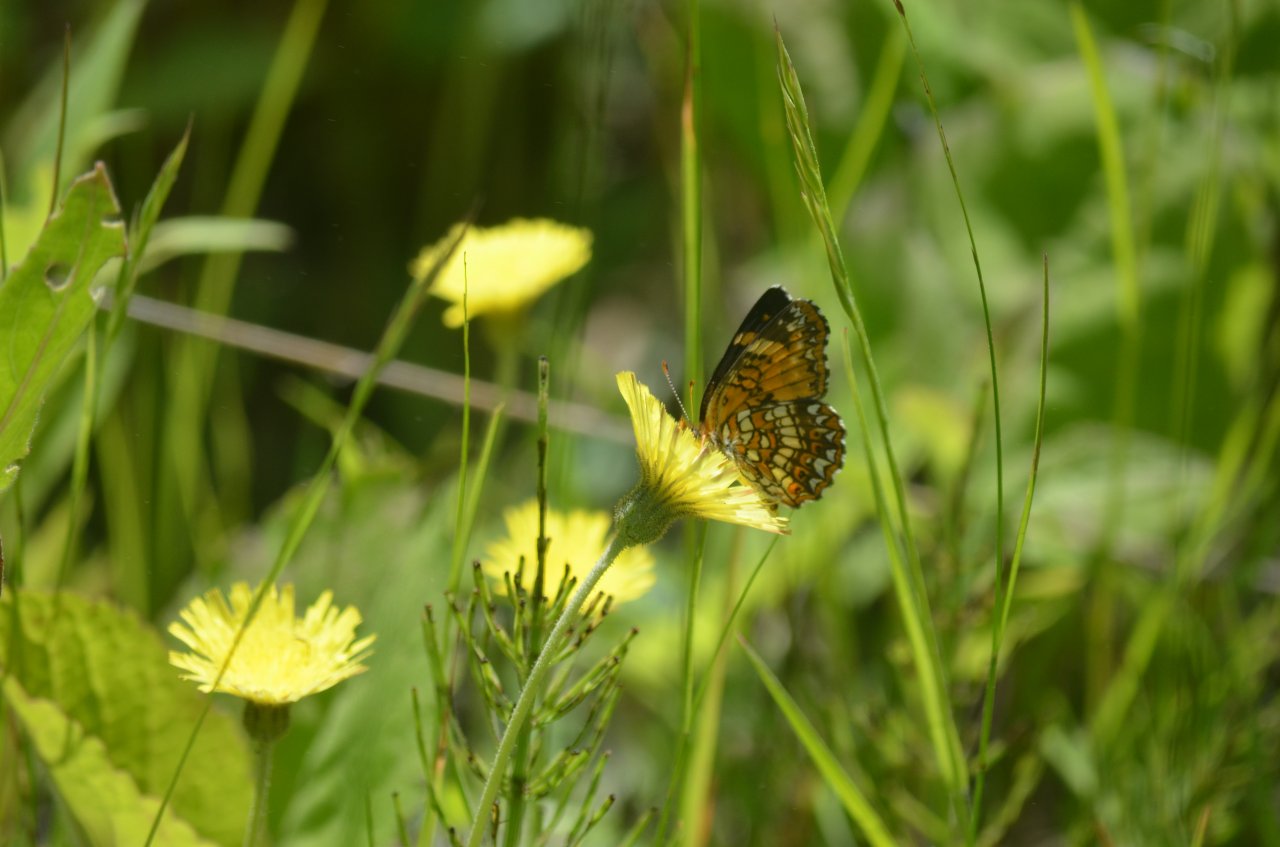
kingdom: Animalia
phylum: Arthropoda
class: Insecta
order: Lepidoptera
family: Nymphalidae
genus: Chlosyne
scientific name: Chlosyne harrisii
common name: Harris's Checkerspot
